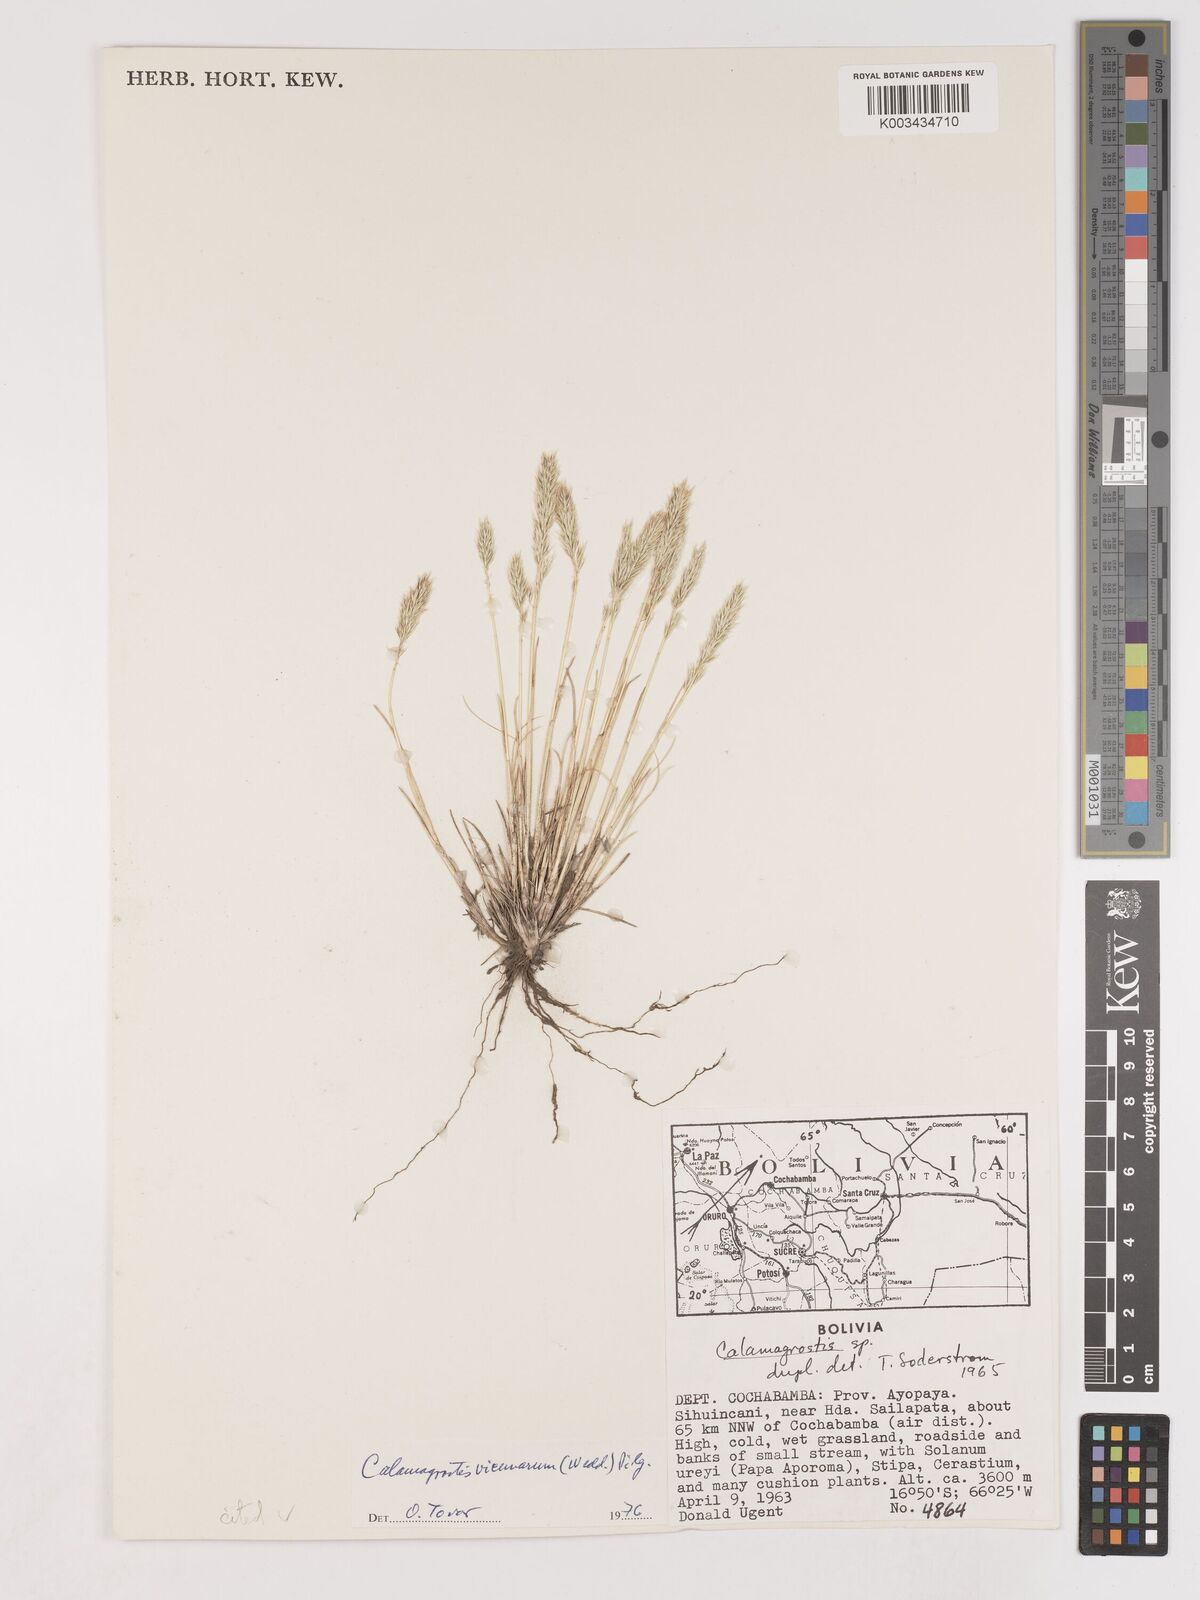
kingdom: Plantae
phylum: Tracheophyta
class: Liliopsida
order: Poales
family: Poaceae
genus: Cinnagrostis
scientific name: Cinnagrostis vicunarum
